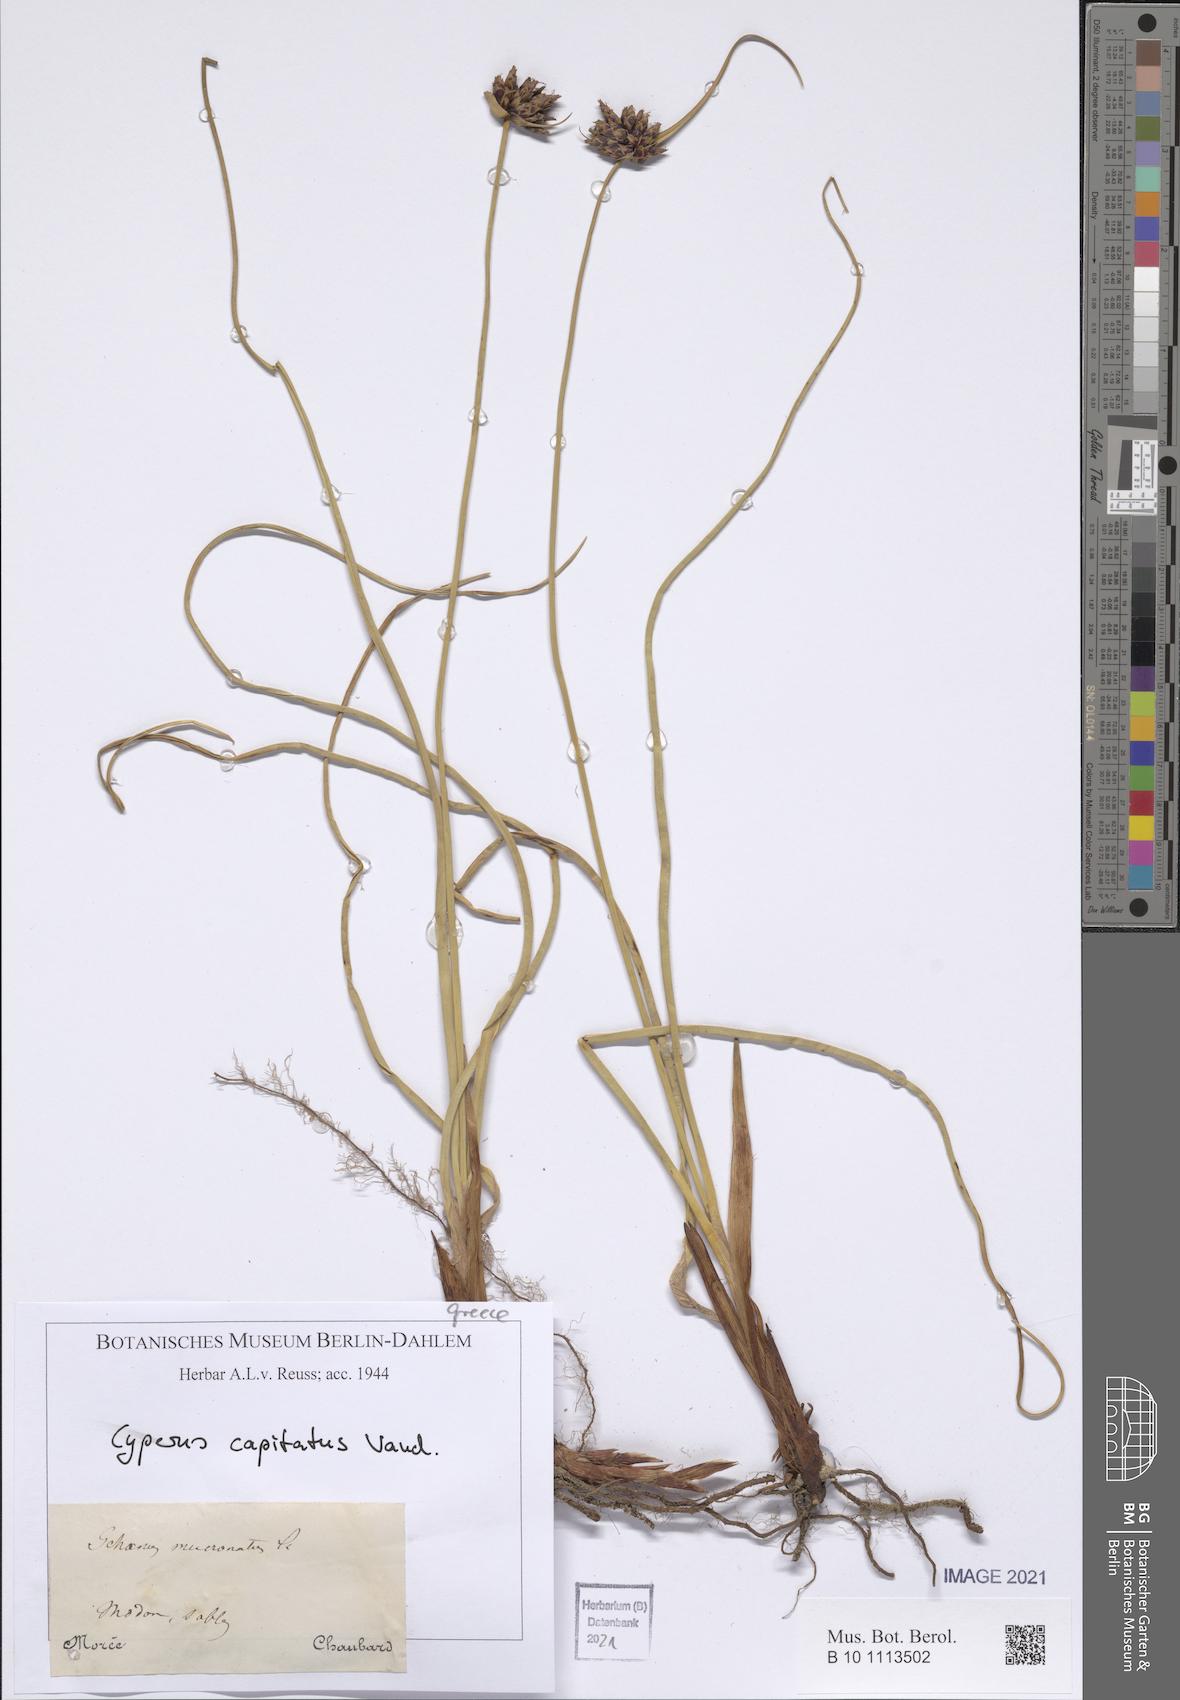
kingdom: Plantae
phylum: Tracheophyta
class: Liliopsida
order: Poales
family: Cyperaceae
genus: Cyperus
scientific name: Cyperus capitatus
